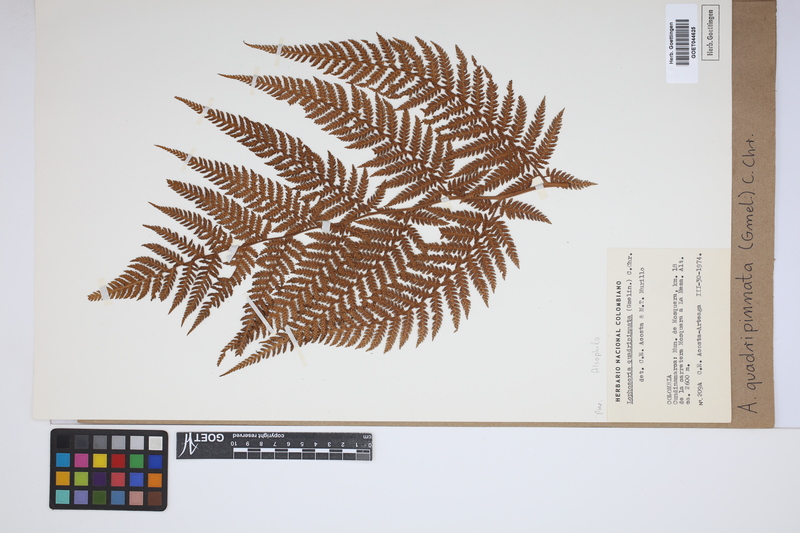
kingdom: Plantae
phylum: Tracheophyta
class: Polypodiopsida
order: Cyatheales
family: Dicksoniaceae
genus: Lophosoria
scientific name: Lophosoria quadripinnata
